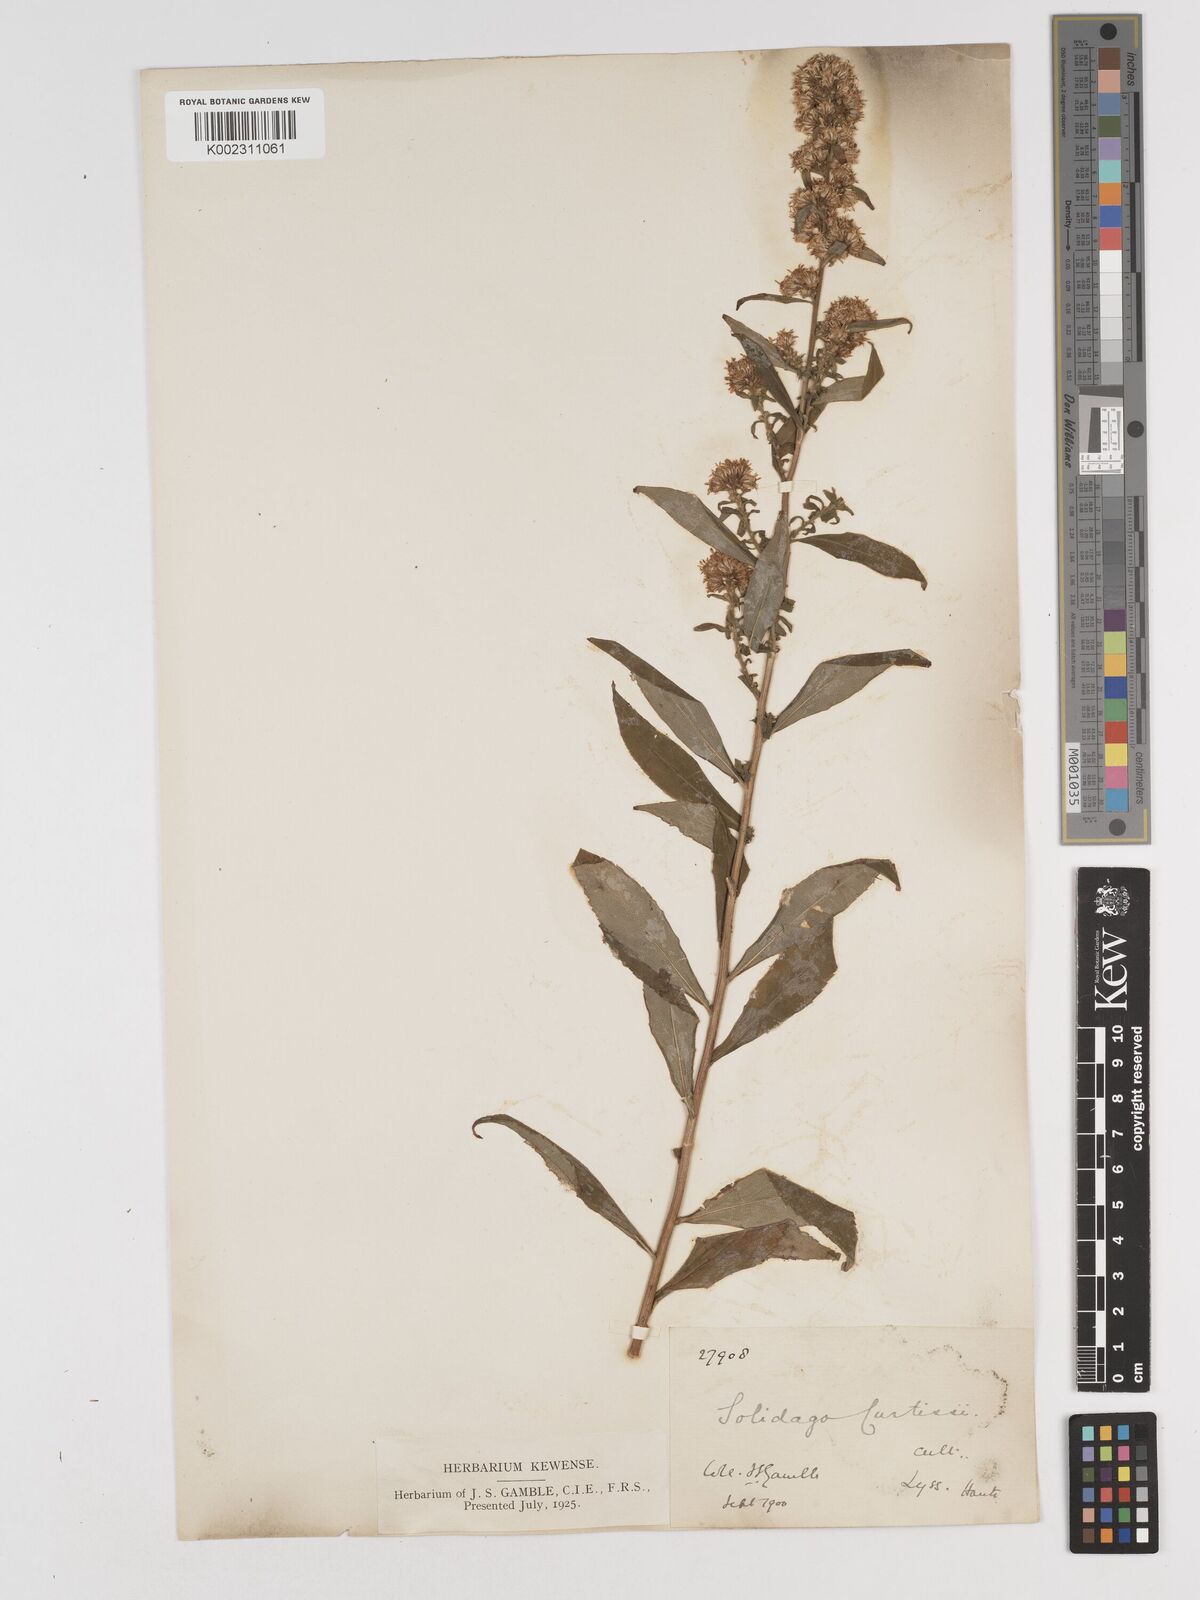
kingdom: Plantae
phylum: Tracheophyta
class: Magnoliopsida
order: Asterales
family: Asteraceae
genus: Solidago
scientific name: Solidago
